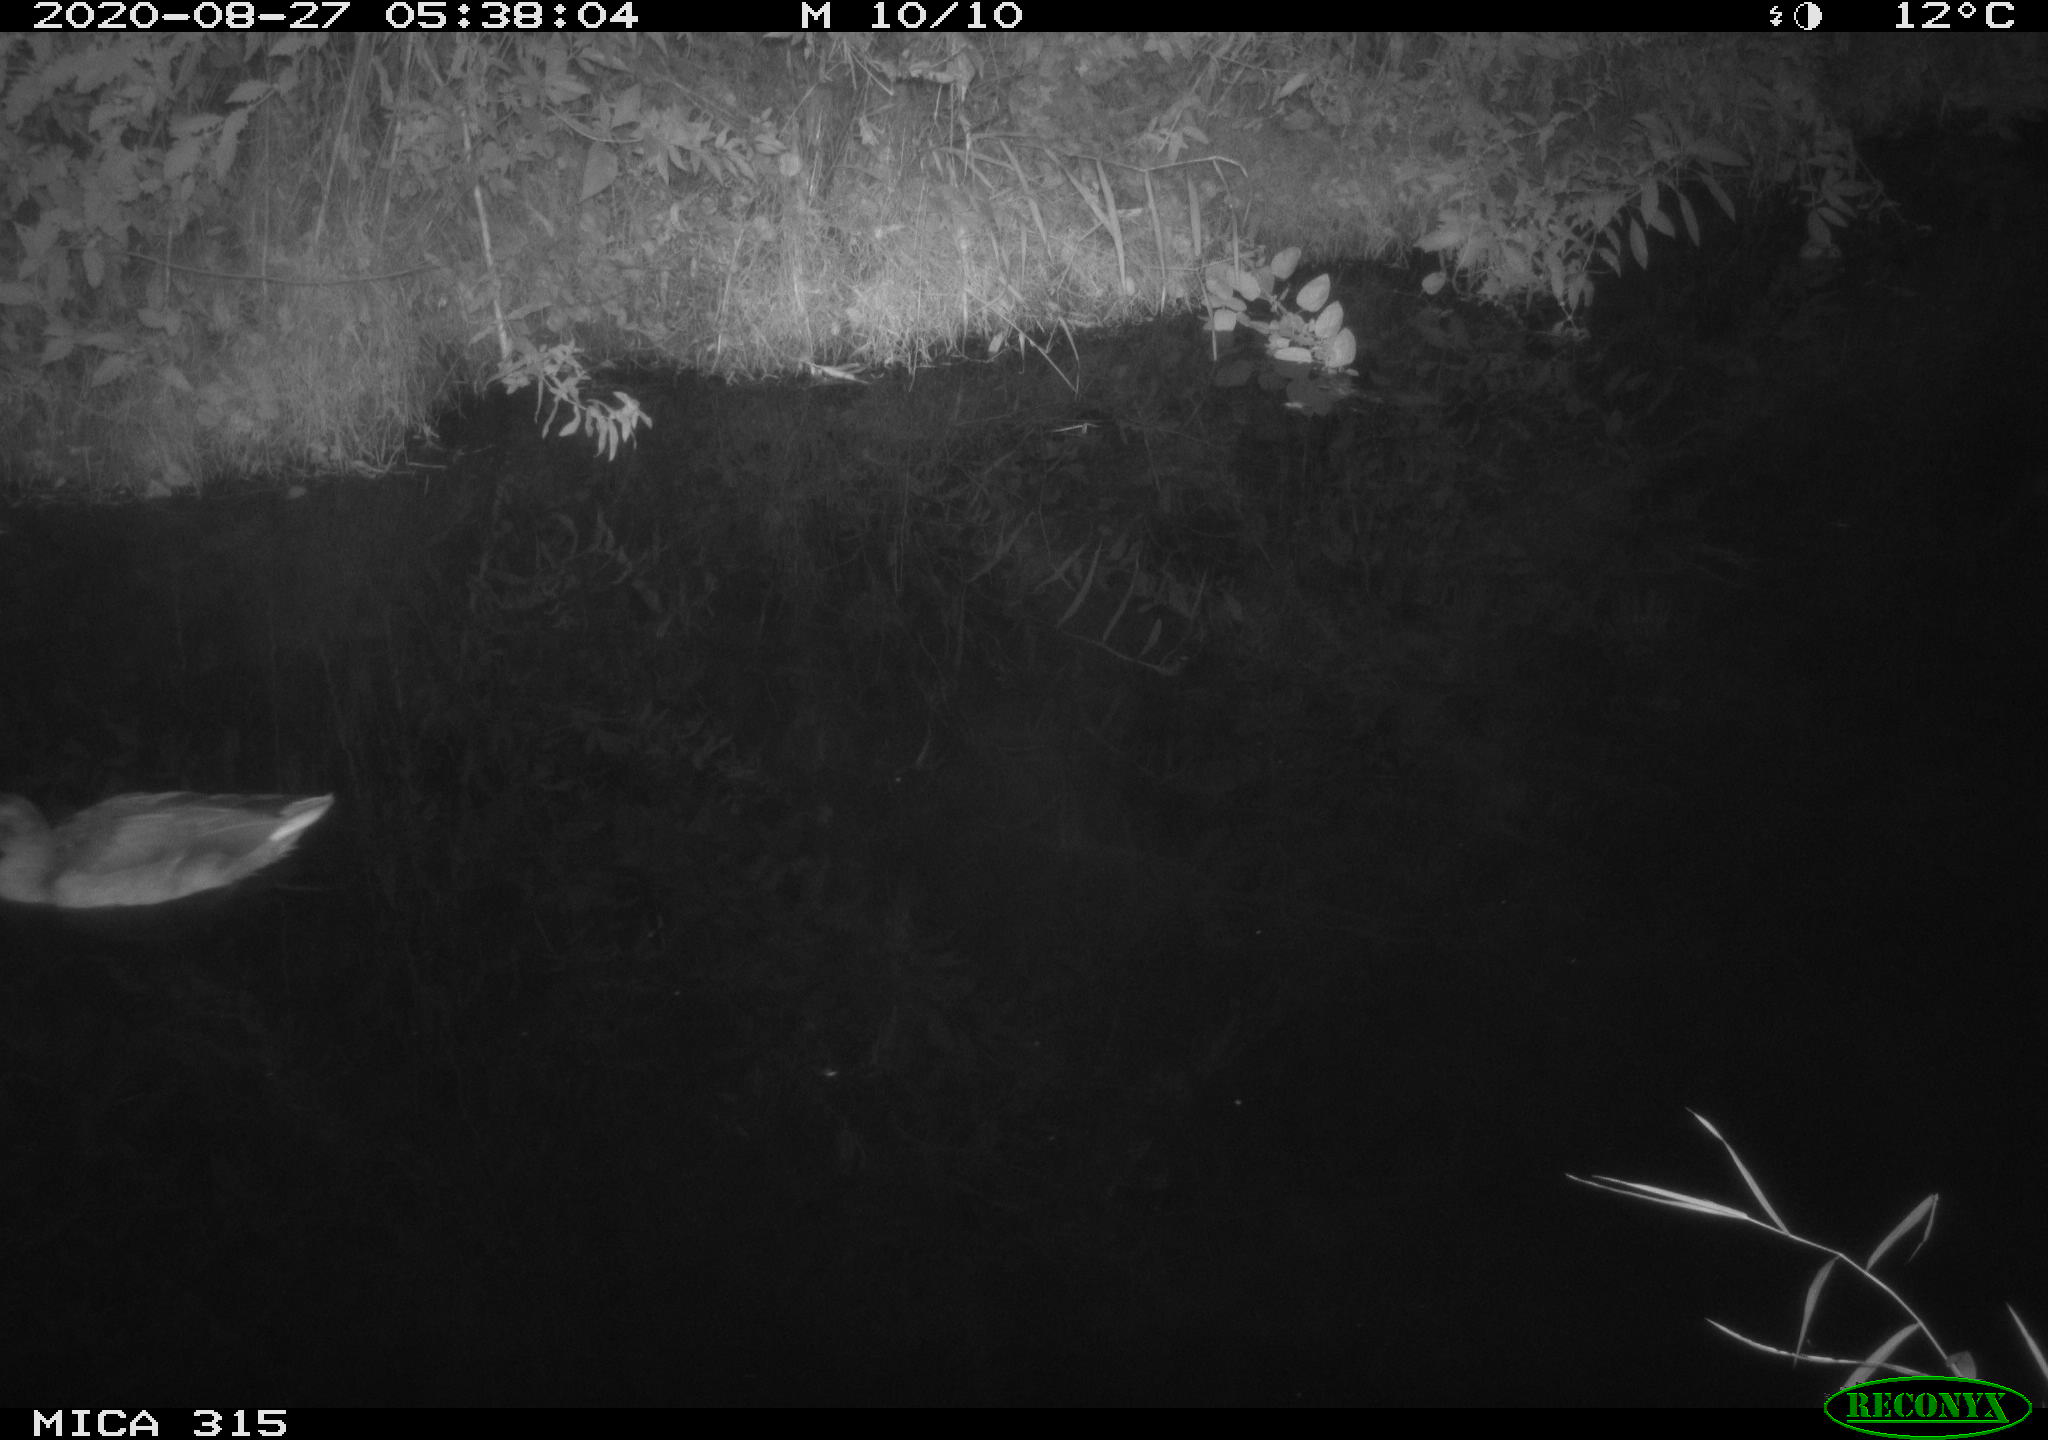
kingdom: Animalia
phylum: Chordata
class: Aves
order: Anseriformes
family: Anatidae
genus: Anas
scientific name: Anas platyrhynchos
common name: Mallard
